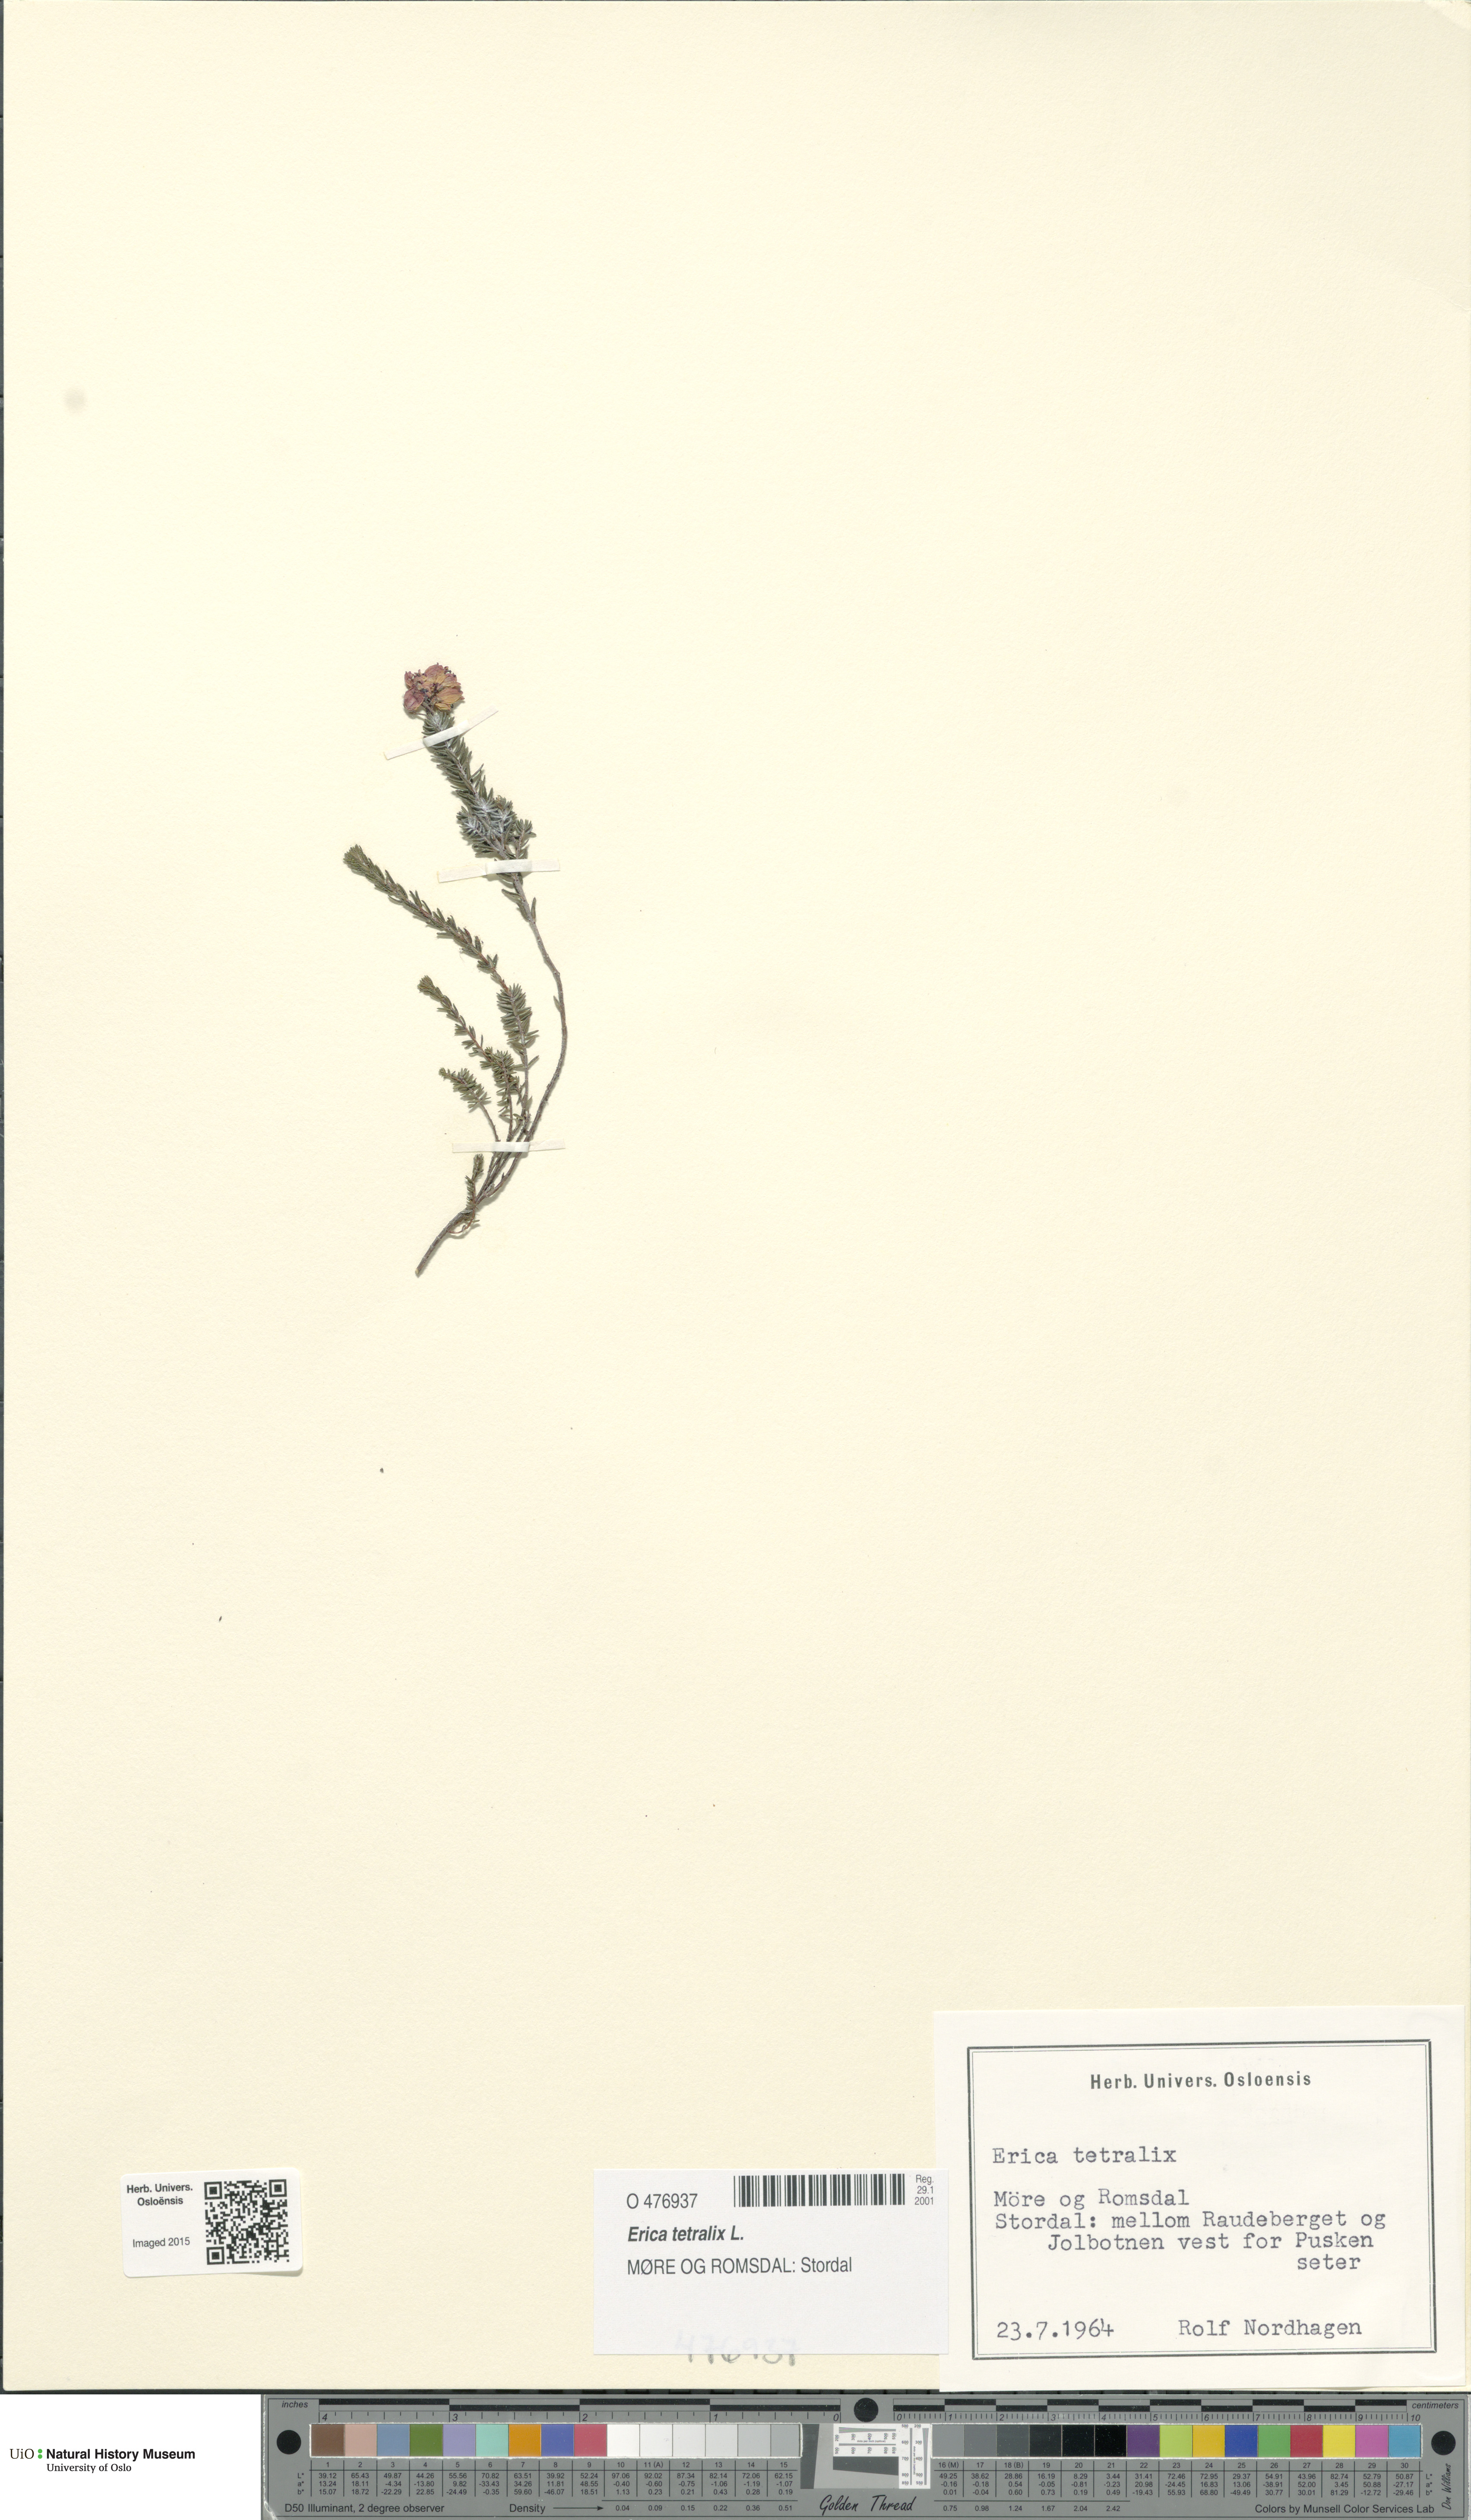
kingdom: Plantae
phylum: Tracheophyta
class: Magnoliopsida
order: Ericales
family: Ericaceae
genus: Erica
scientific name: Erica tetralix
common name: Cross-leaved heath
